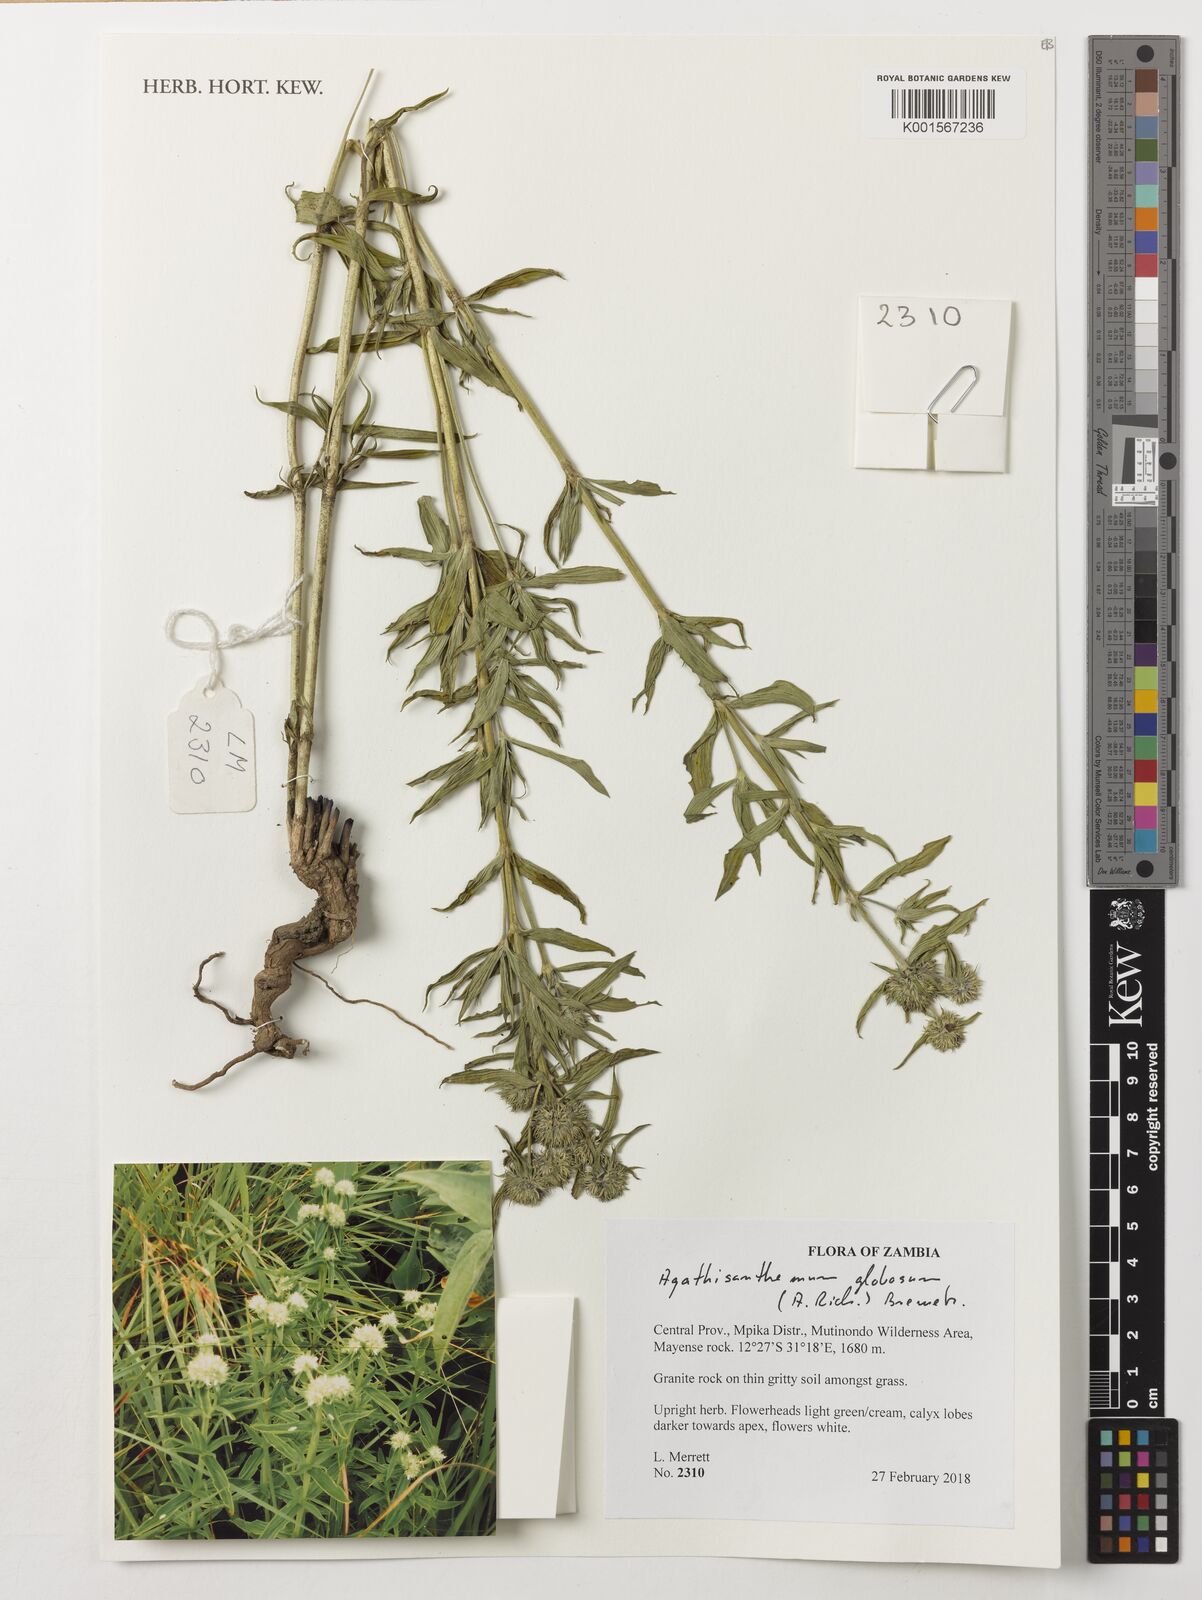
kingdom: Plantae
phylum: Tracheophyta
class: Magnoliopsida
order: Gentianales
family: Rubiaceae
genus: Agathisanthemum
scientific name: Agathisanthemum globosum
